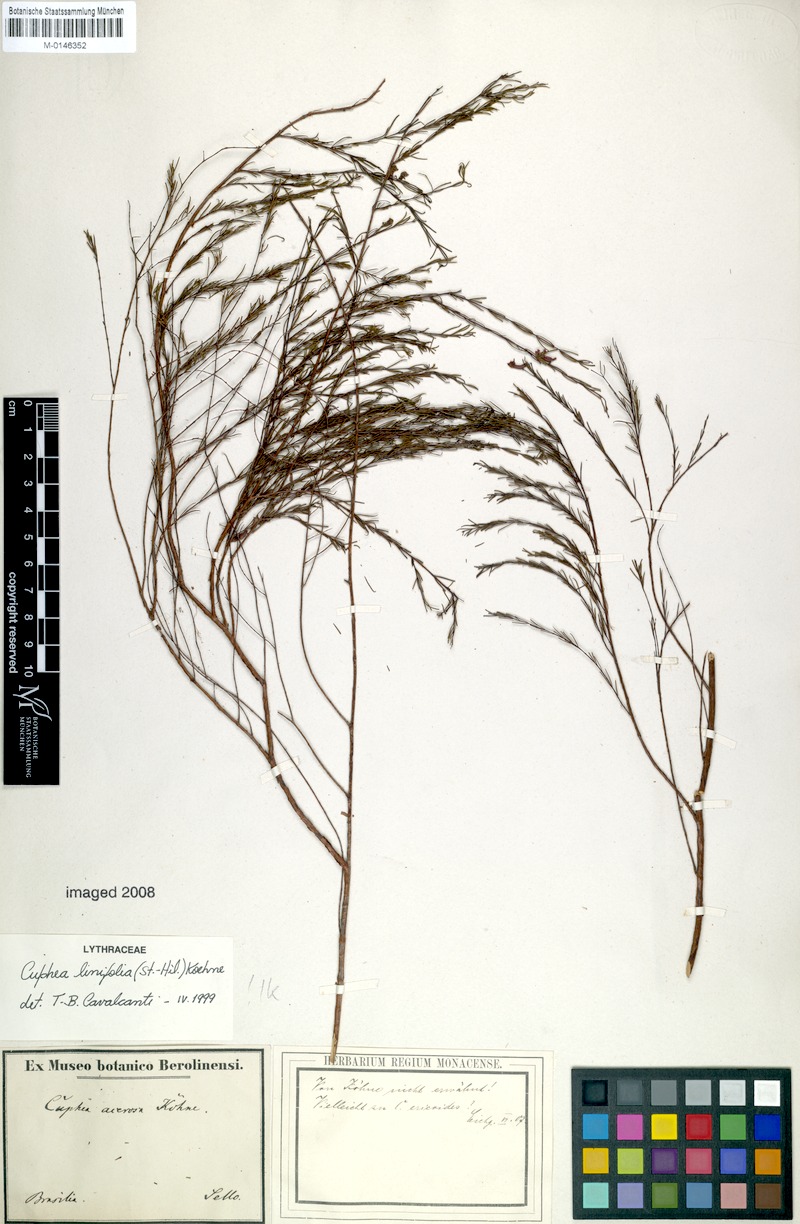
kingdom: Plantae
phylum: Tracheophyta
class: Magnoliopsida
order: Myrtales
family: Lythraceae
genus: Cuphea
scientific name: Cuphea linifolia
